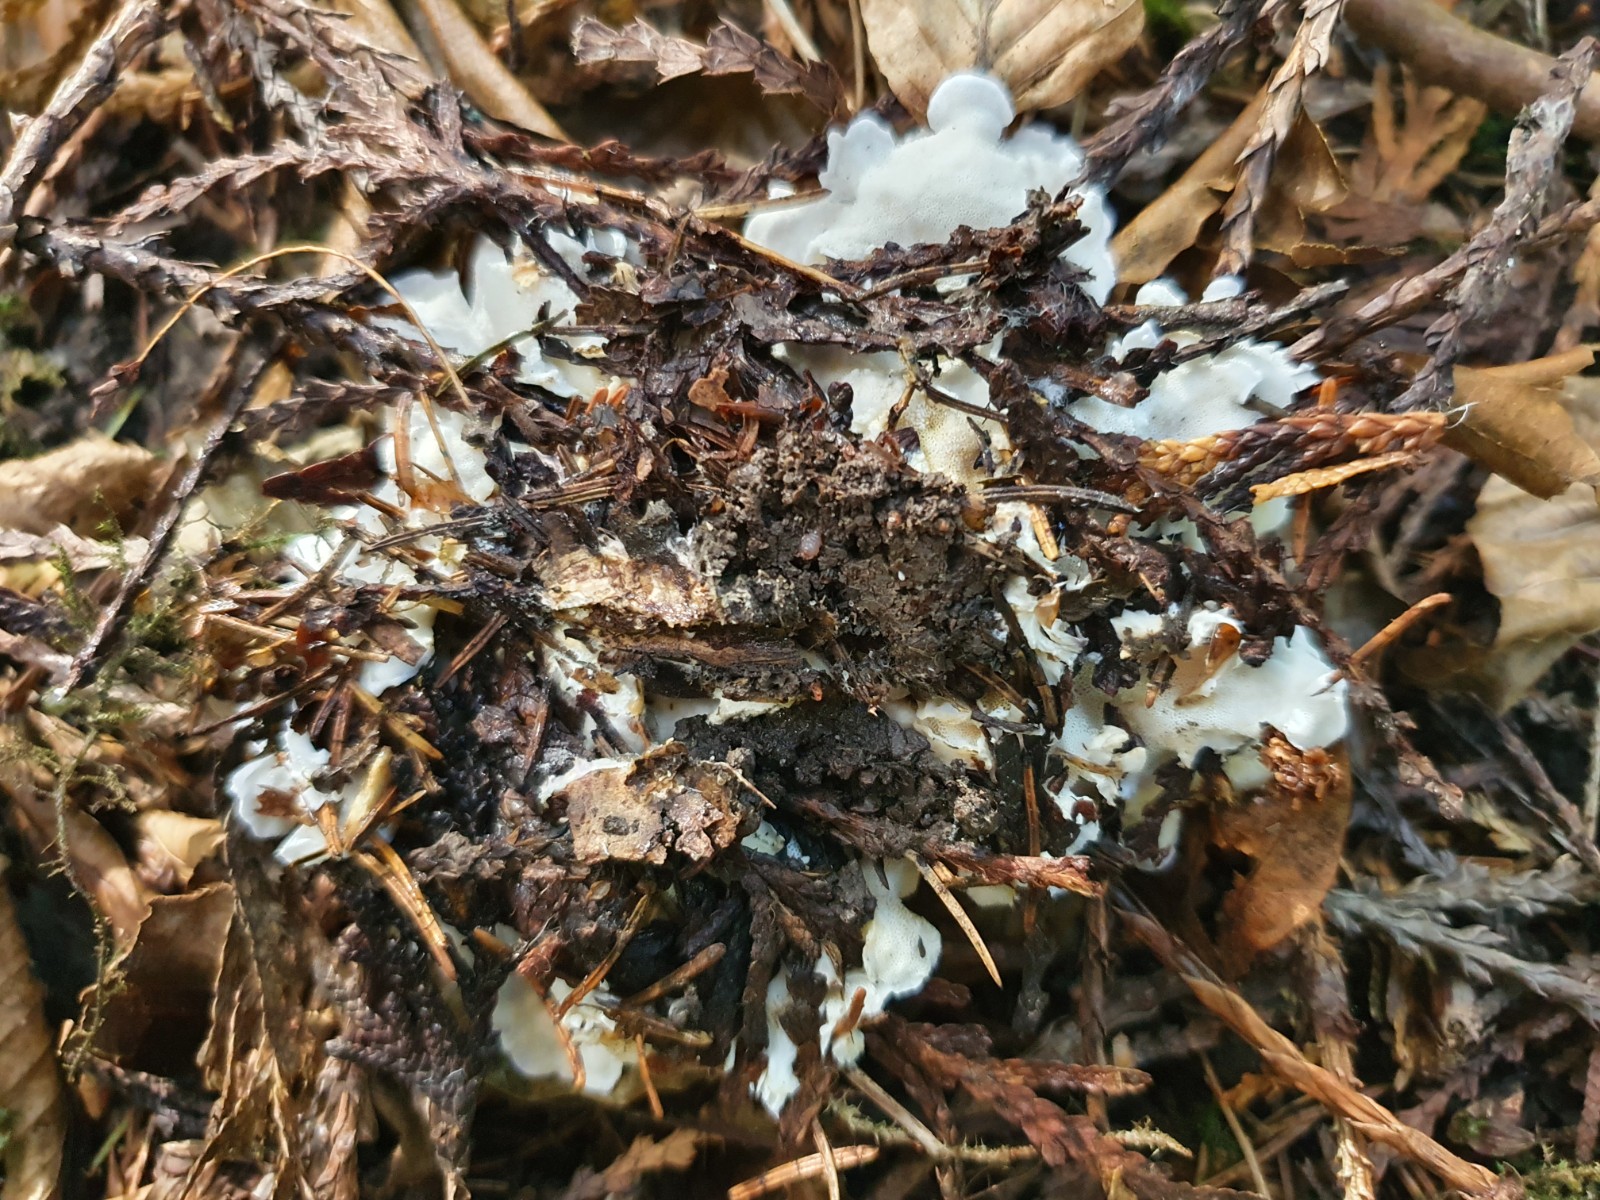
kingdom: Fungi
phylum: Basidiomycota
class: Agaricomycetes
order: Polyporales
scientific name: Polyporales
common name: poresvampordenen
